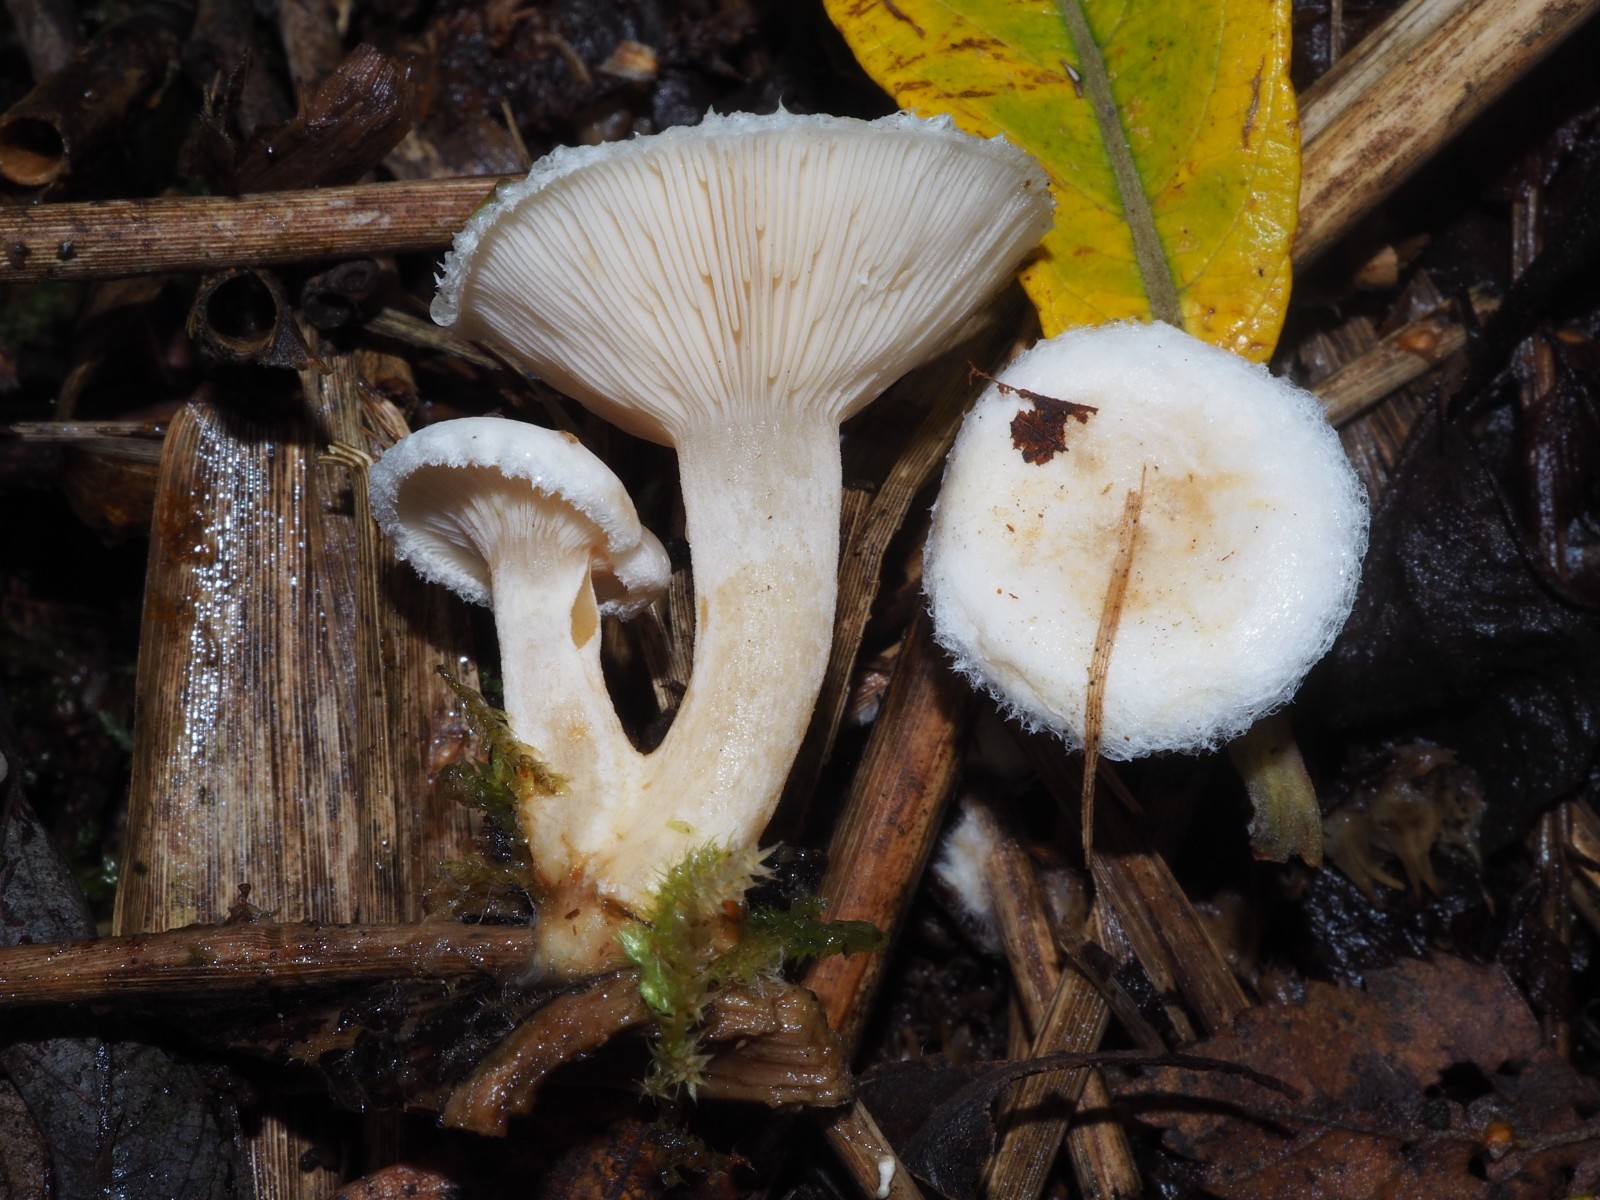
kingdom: Fungi
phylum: Basidiomycota
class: Agaricomycetes
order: Russulales
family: Russulaceae
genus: Lactarius
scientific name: Lactarius scoticus
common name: tørve-mælkehat
